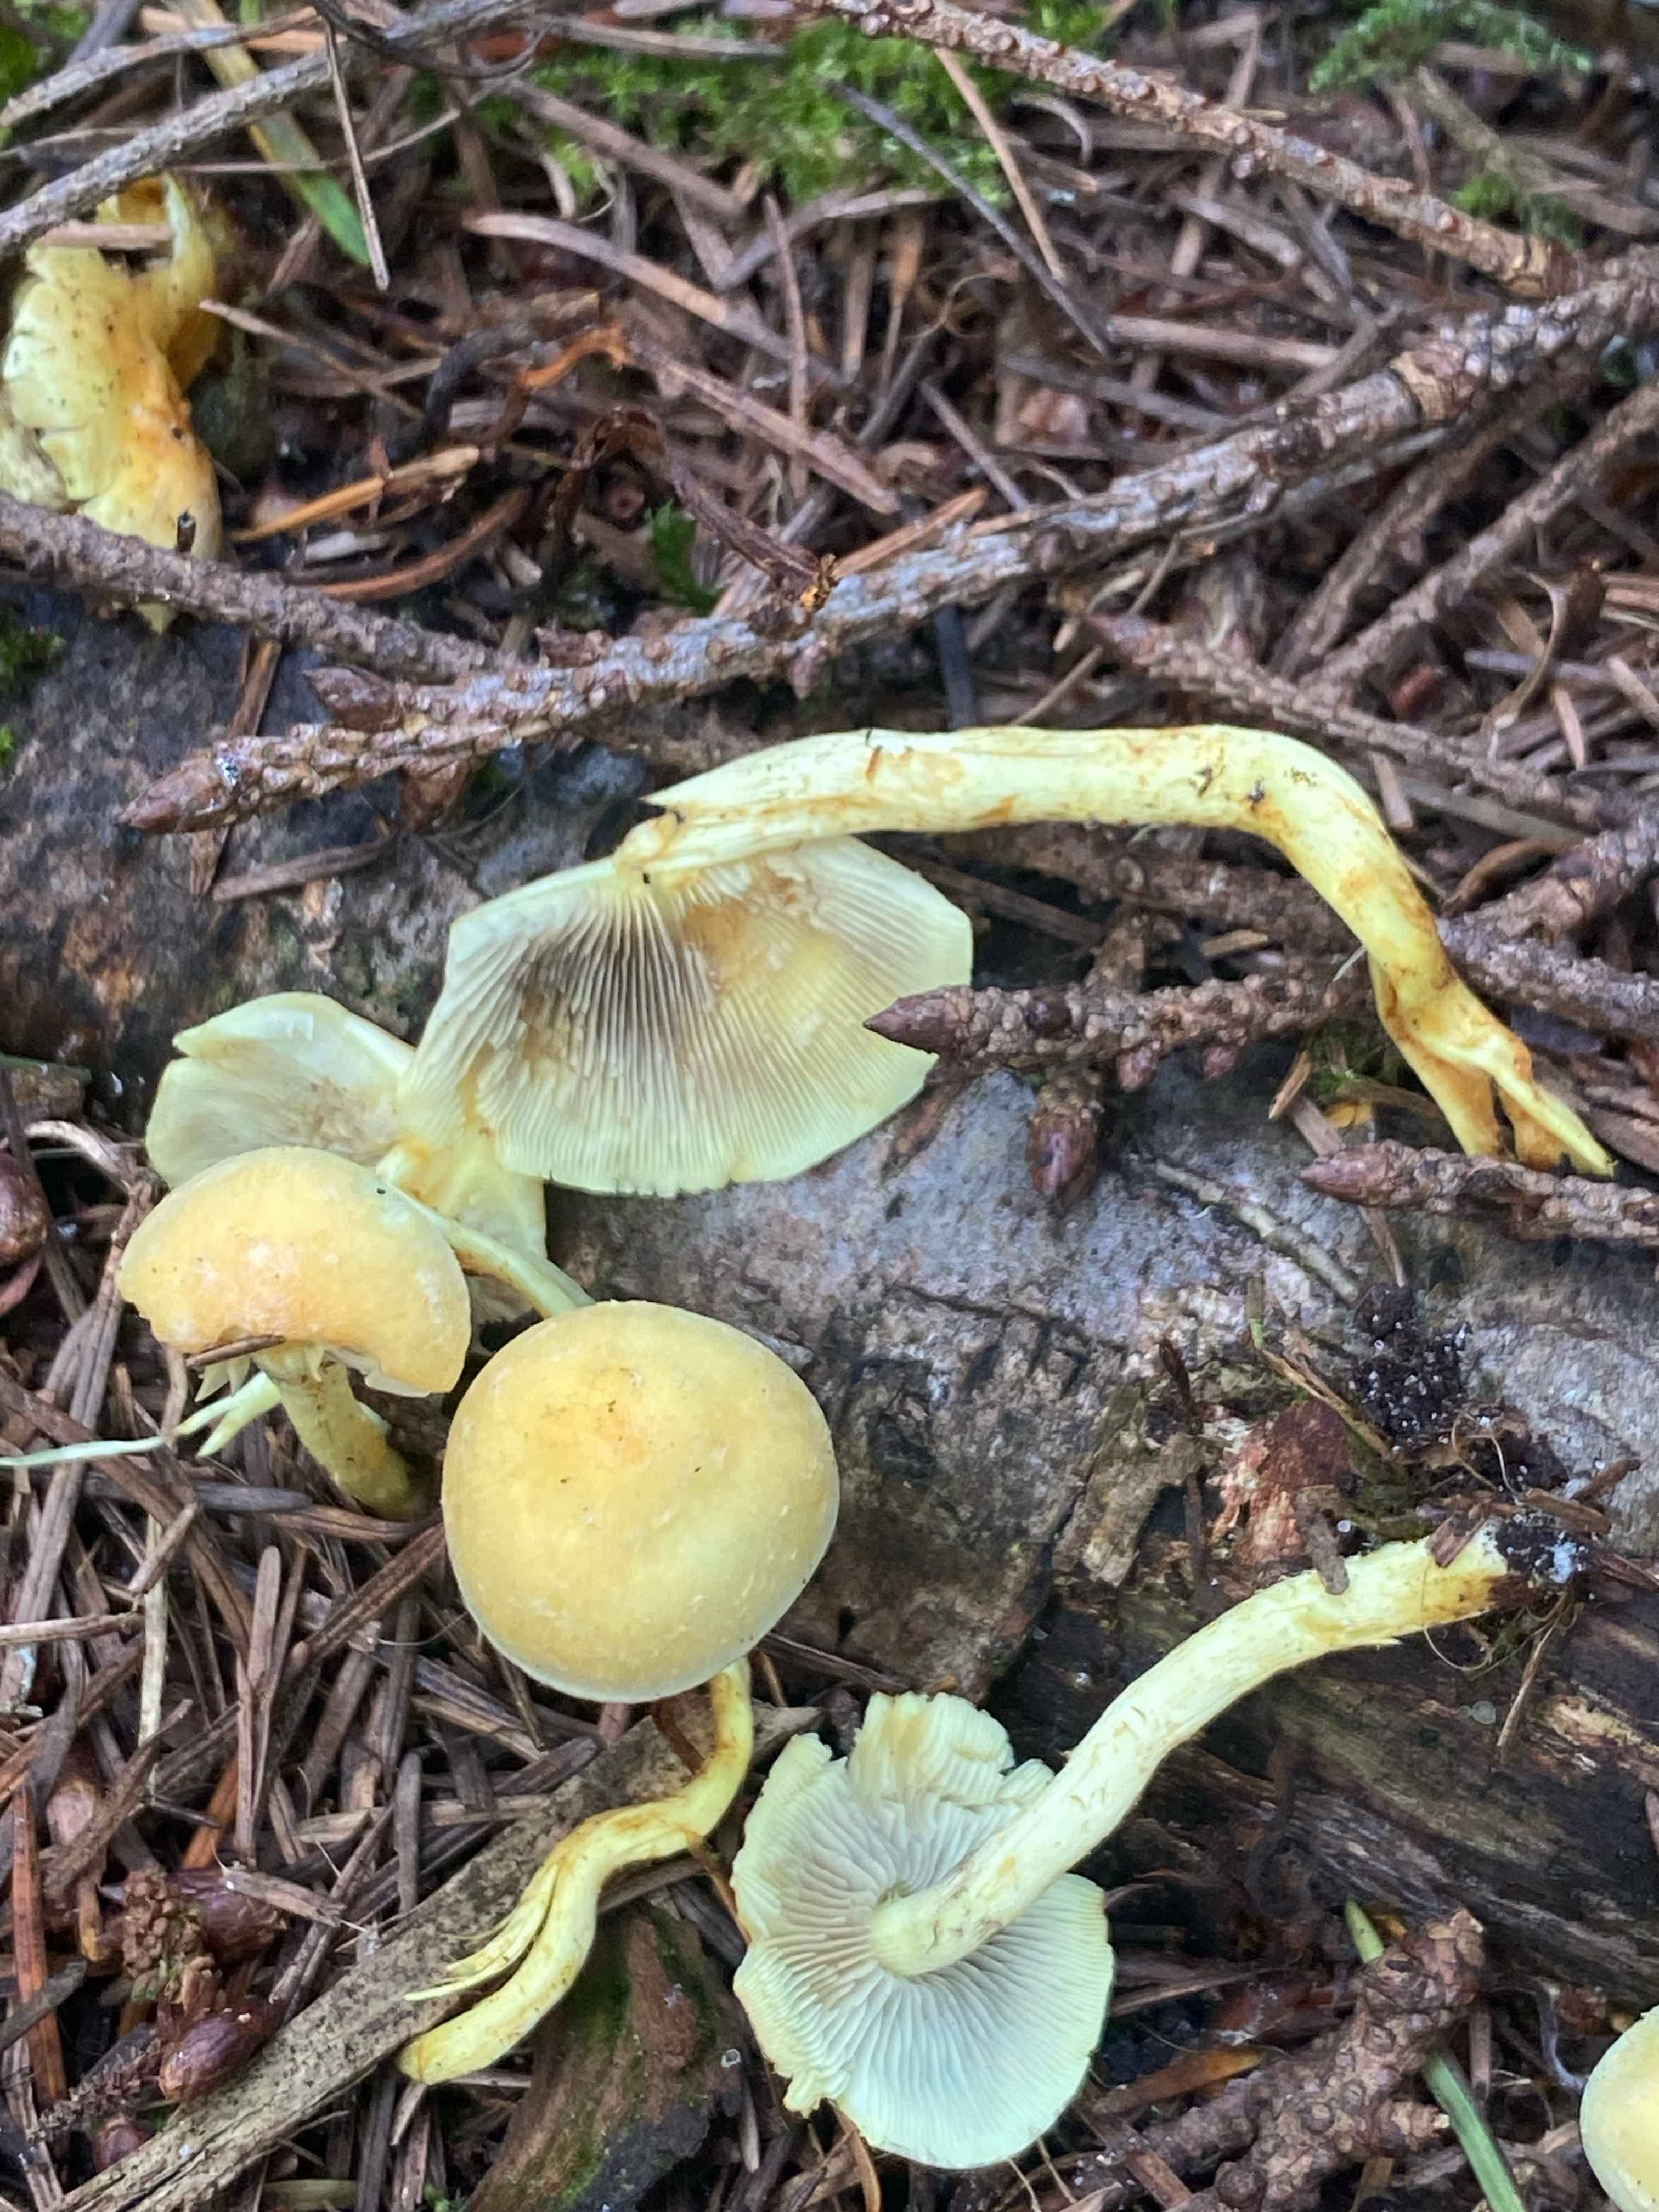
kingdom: Fungi
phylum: Basidiomycota
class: Agaricomycetes
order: Agaricales
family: Strophariaceae
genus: Hypholoma
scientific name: Hypholoma fasciculare
